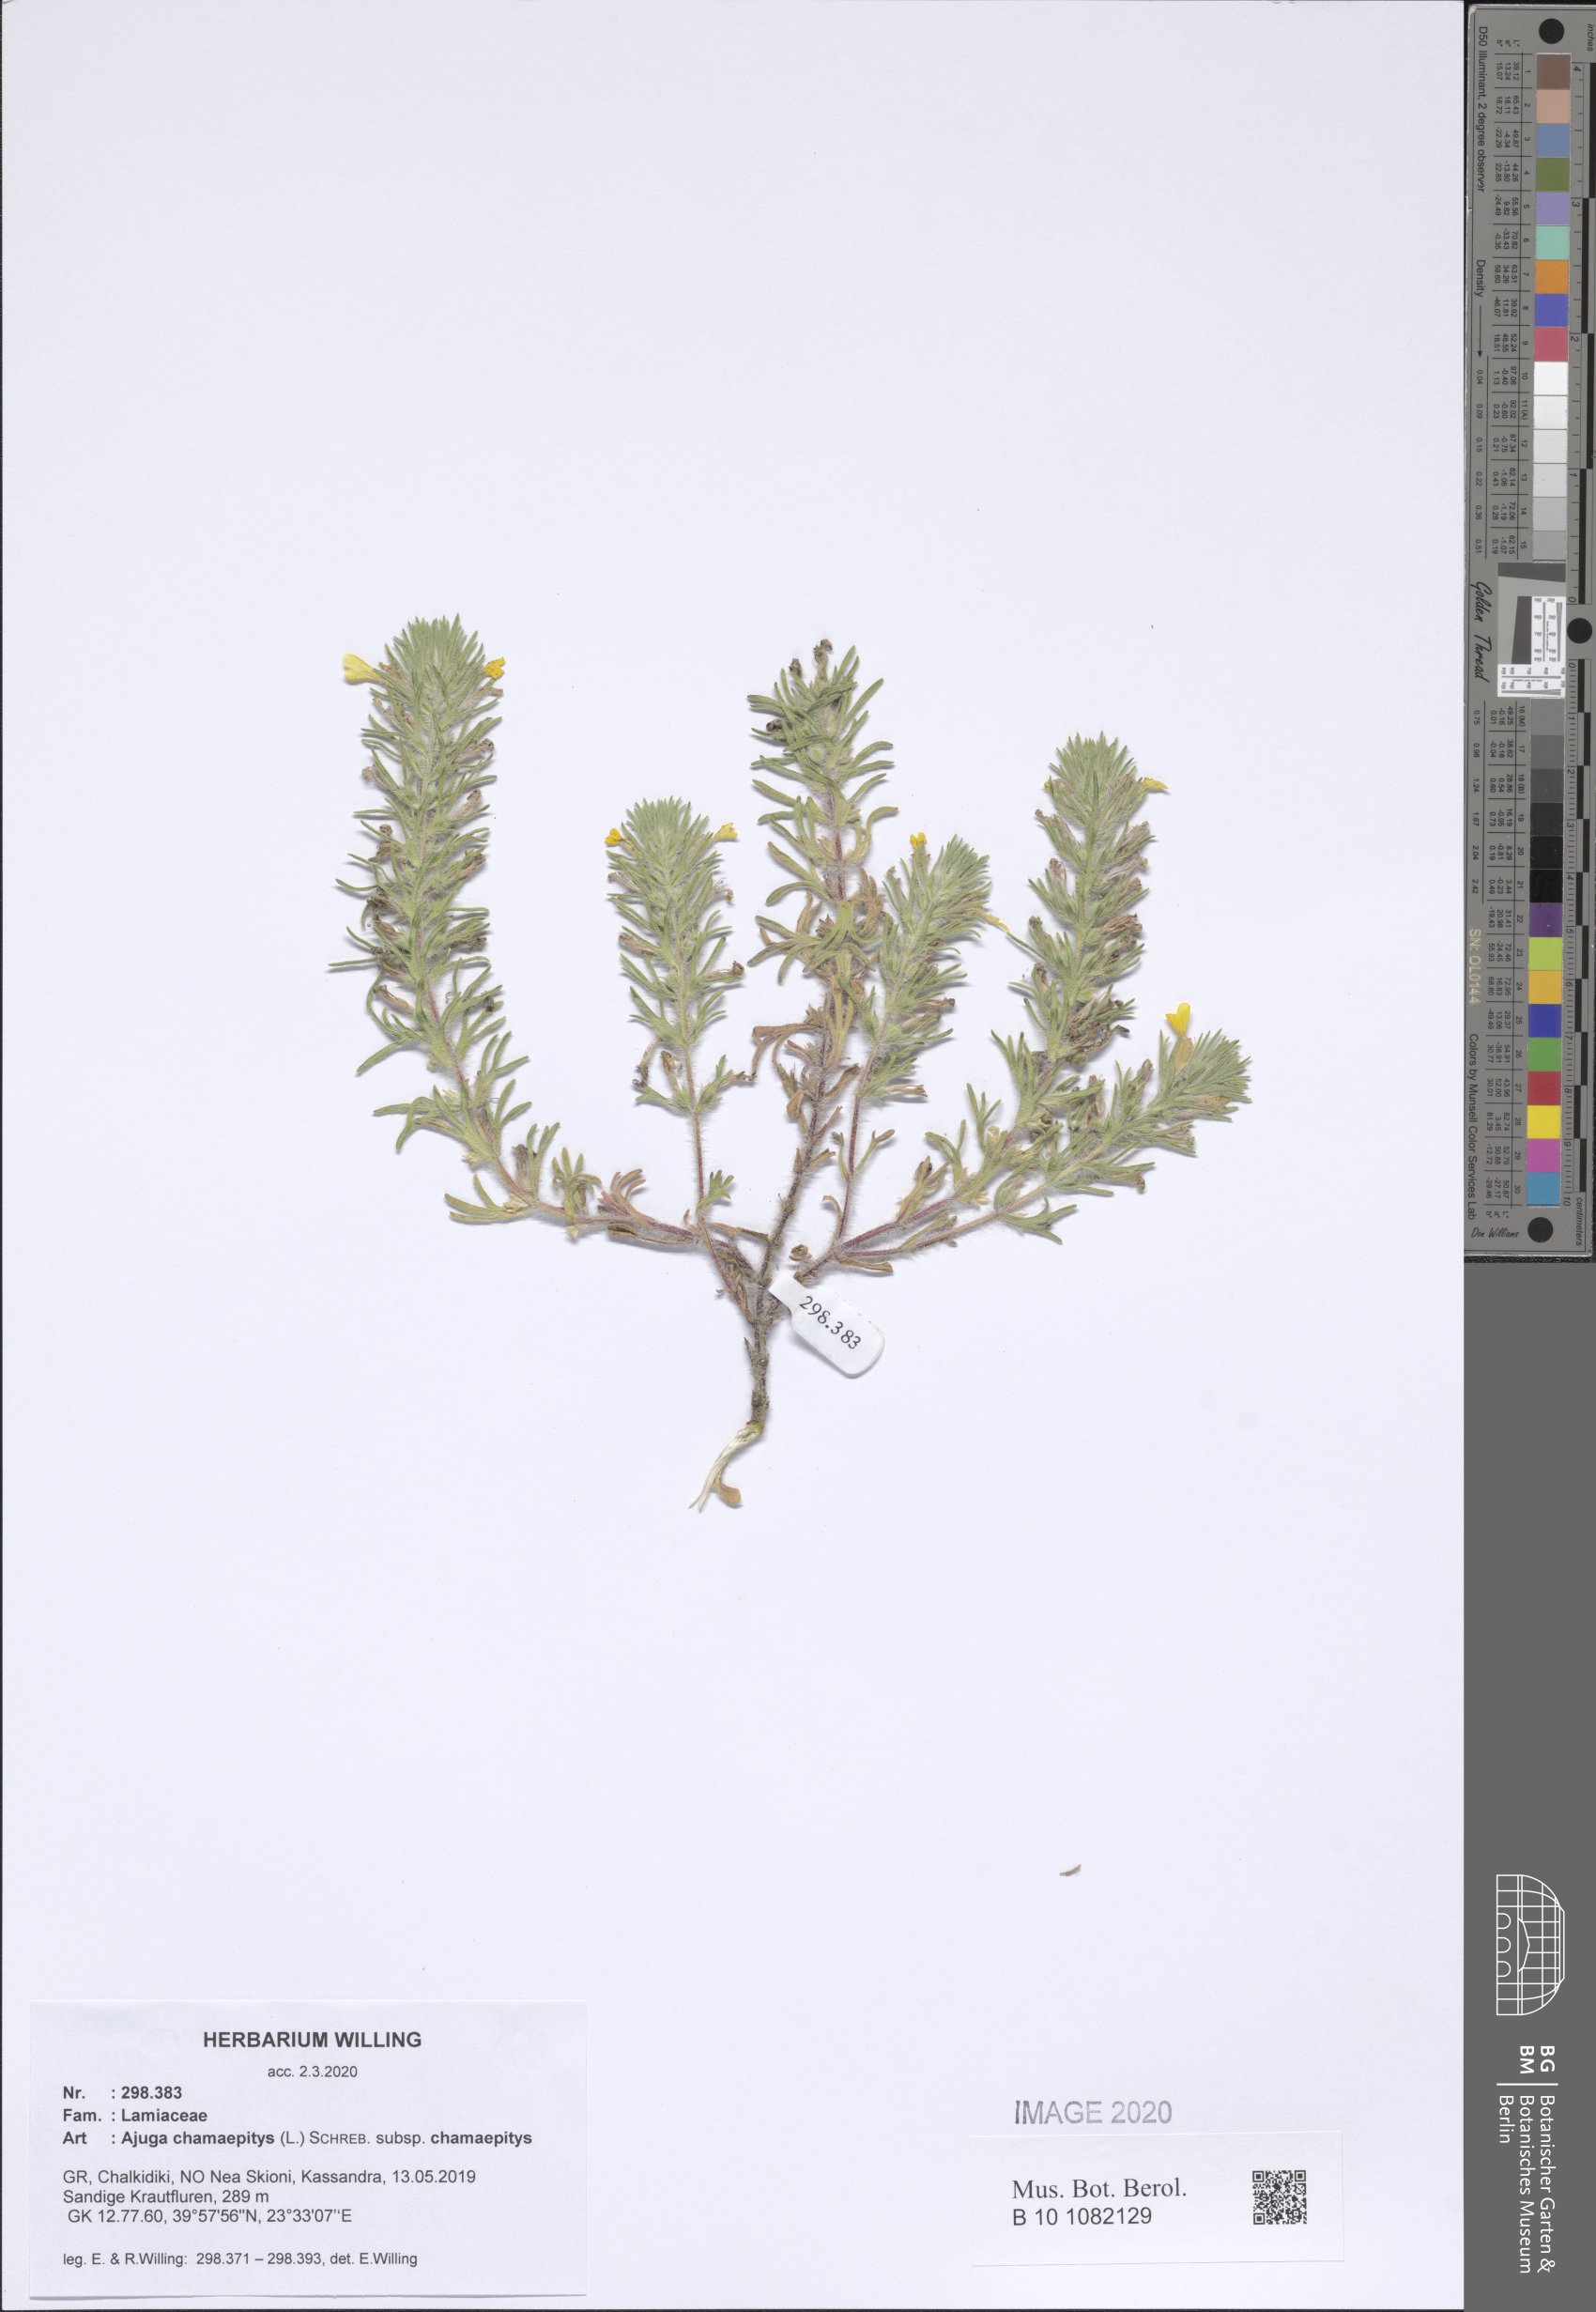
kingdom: Plantae
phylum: Tracheophyta
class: Magnoliopsida
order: Lamiales
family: Lamiaceae
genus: Ajuga
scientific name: Ajuga chamaepitys
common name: Ground-pine
